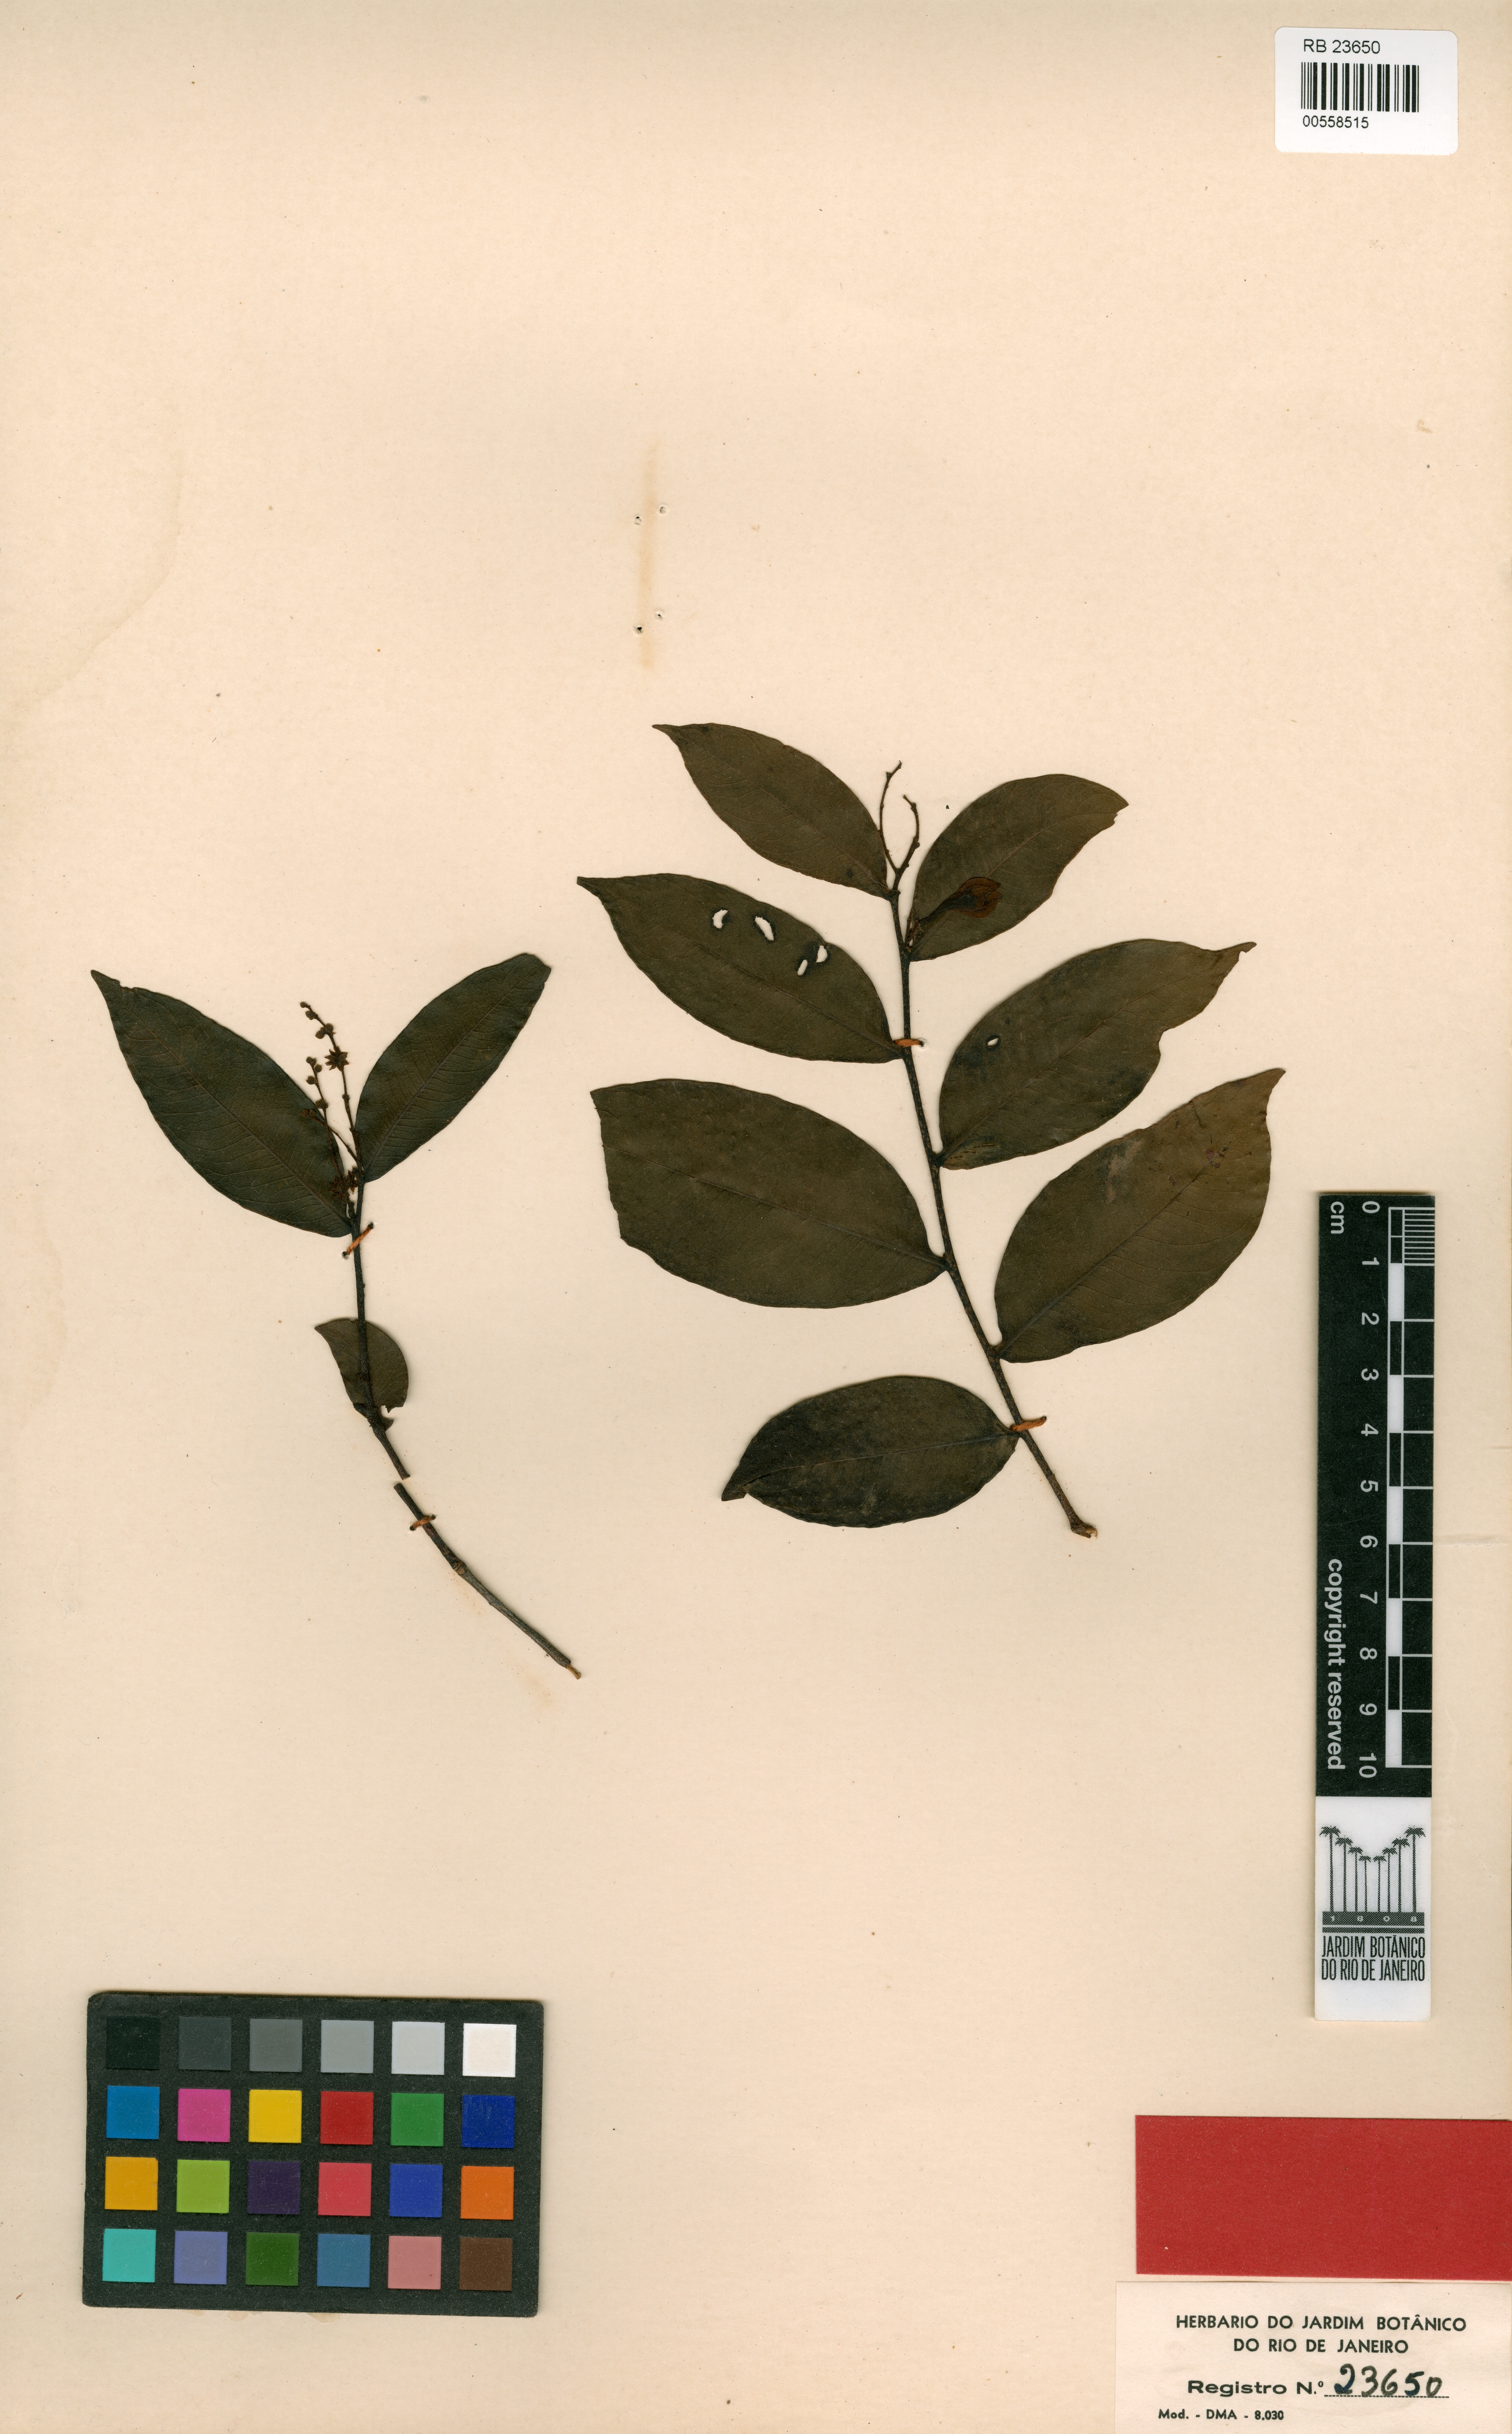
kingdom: Plantae
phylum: Tracheophyta
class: Magnoliopsida
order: Cucurbitales
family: Anisophylleaceae
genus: Polygonanthus
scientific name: Polygonanthus amazonicus
